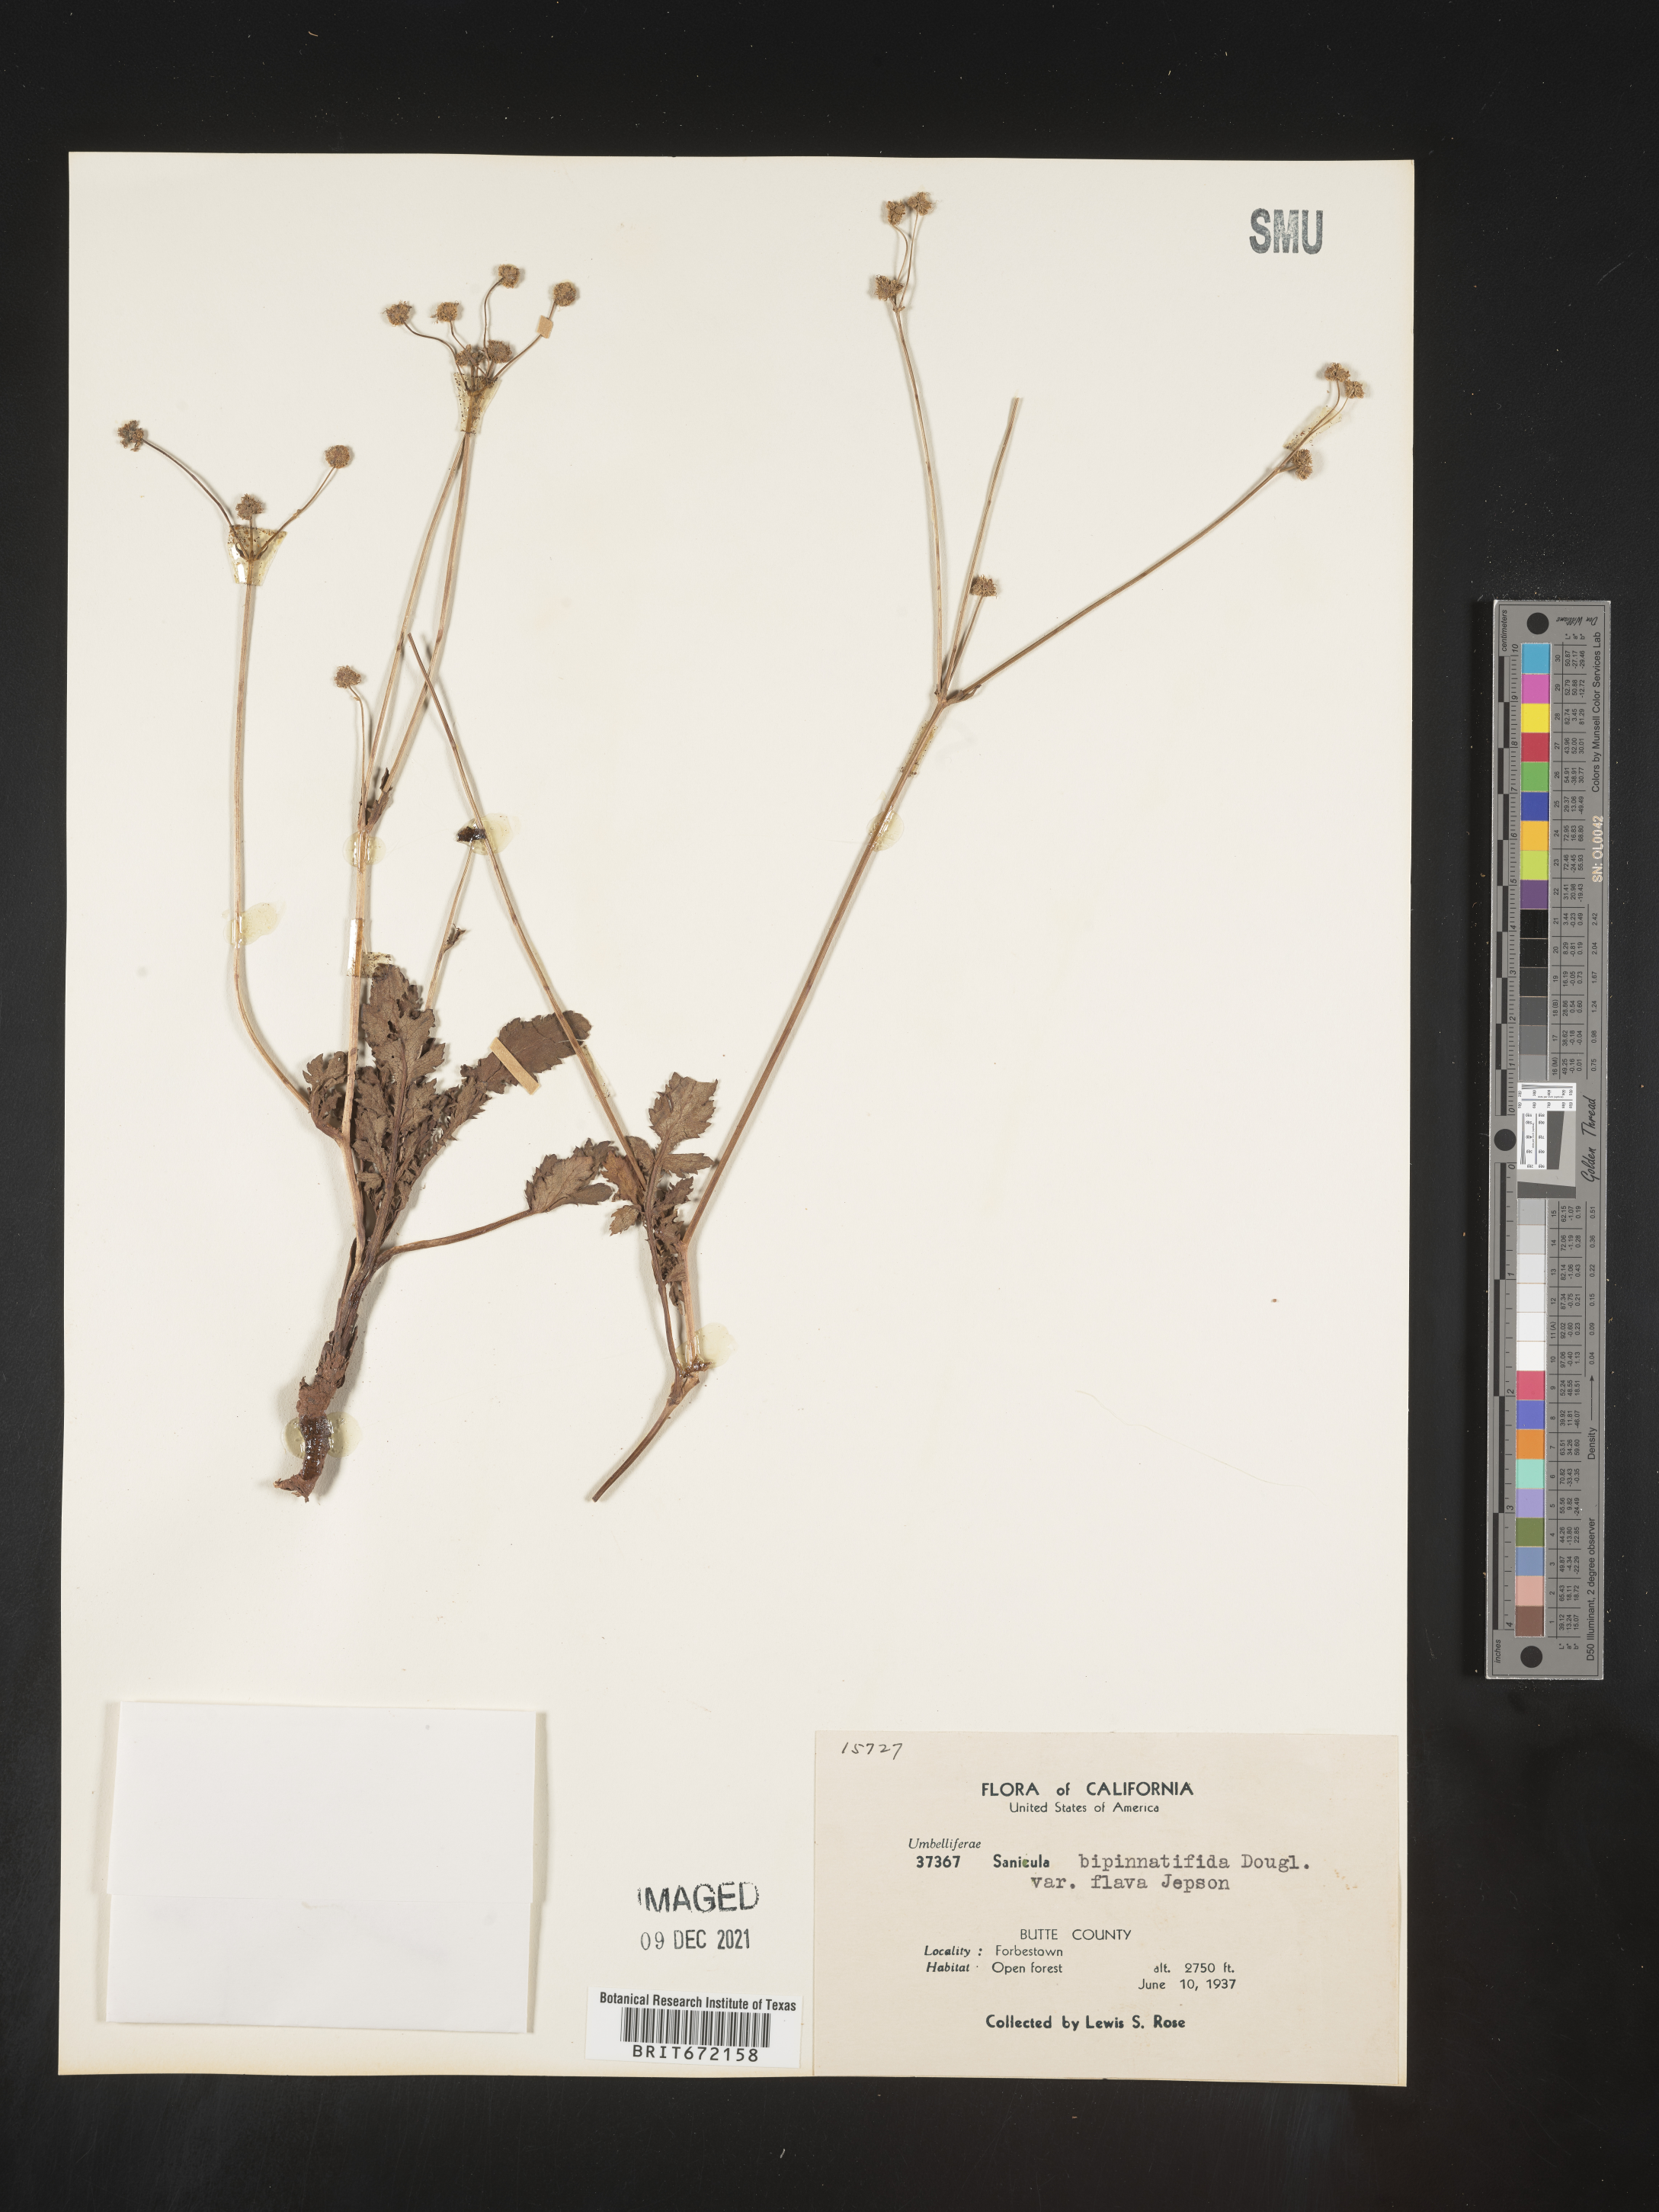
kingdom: Plantae
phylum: Tracheophyta
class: Magnoliopsida
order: Apiales
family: Apiaceae
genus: Sanicula
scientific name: Sanicula
